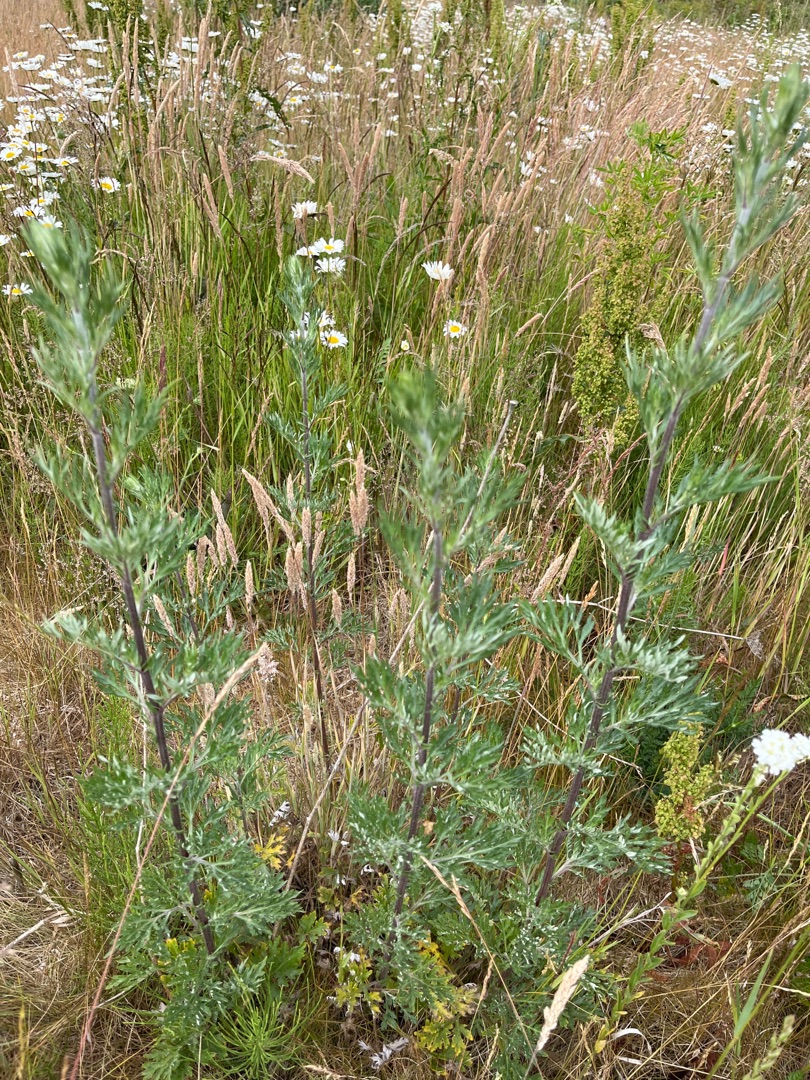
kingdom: Plantae
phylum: Tracheophyta
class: Magnoliopsida
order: Asterales
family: Asteraceae
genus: Artemisia
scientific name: Artemisia vulgaris
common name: Grå-bynke
